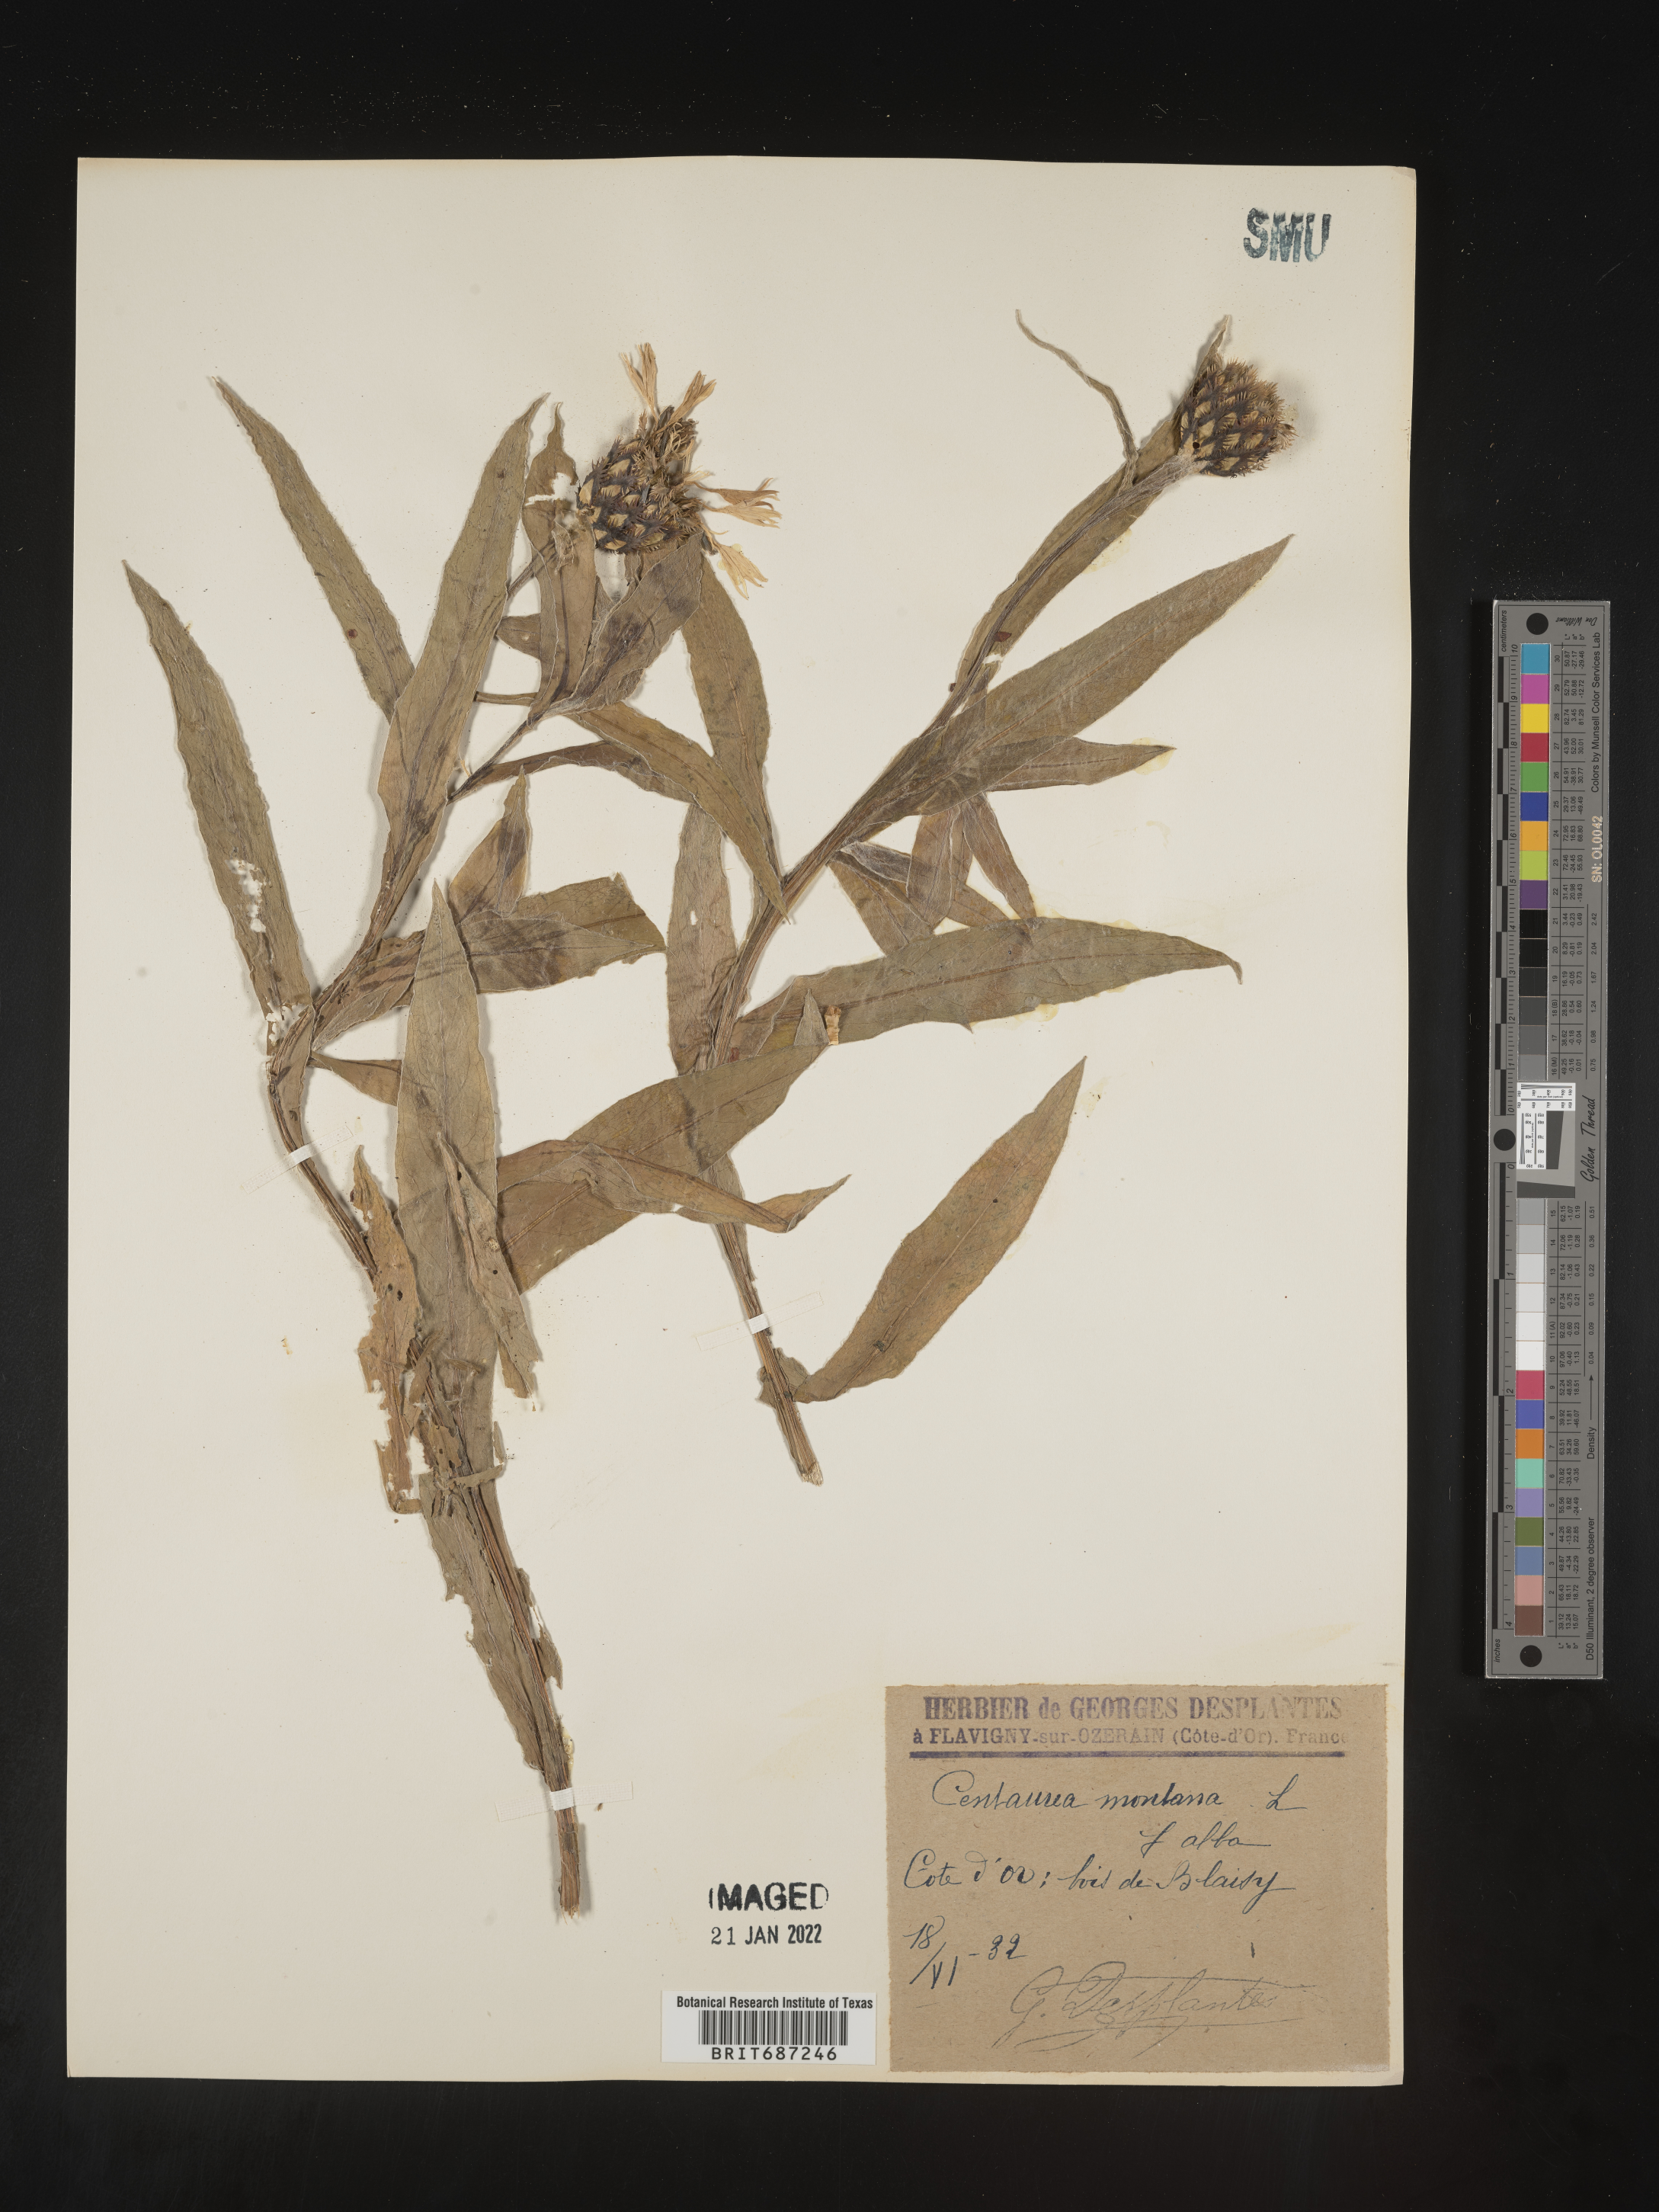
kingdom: Plantae
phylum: Tracheophyta
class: Magnoliopsida
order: Asterales
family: Asteraceae
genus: Centaurea
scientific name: Centaurea
